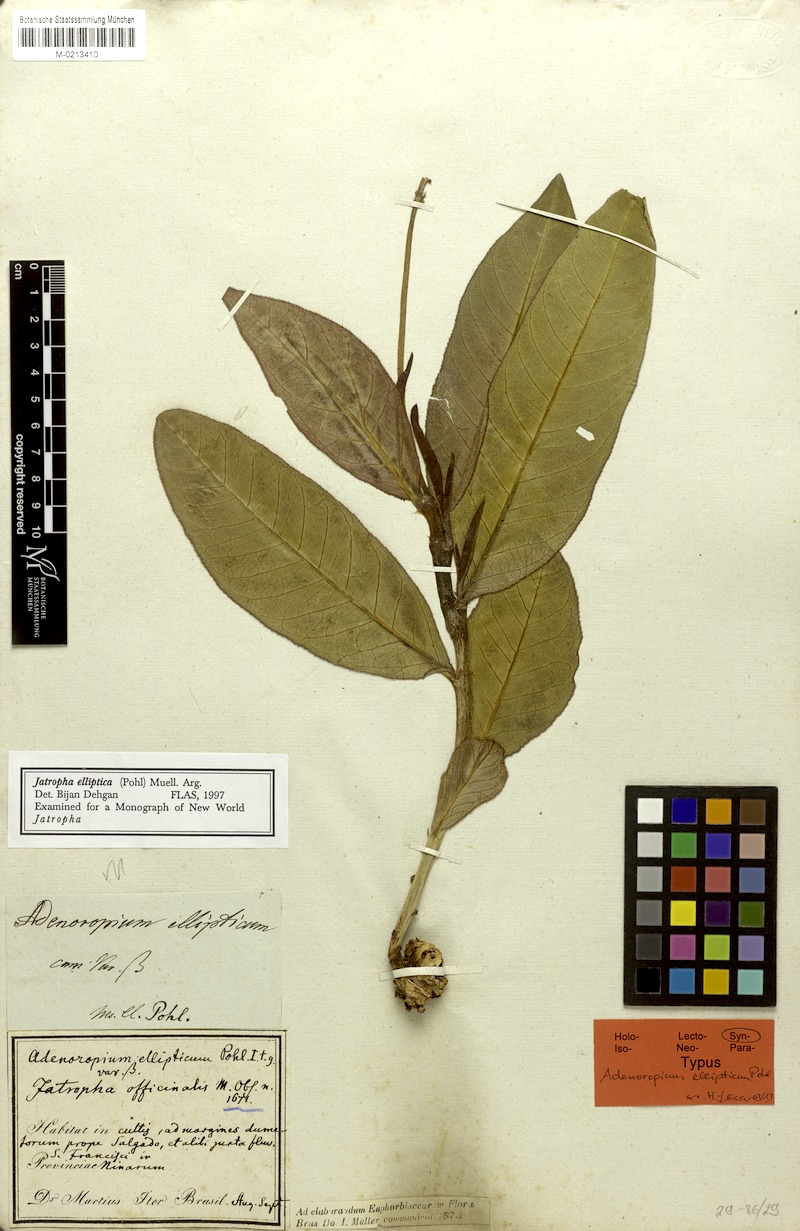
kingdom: Plantae
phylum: Tracheophyta
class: Magnoliopsida
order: Malpighiales
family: Euphorbiaceae
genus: Jatropha
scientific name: Jatropha elliptica
